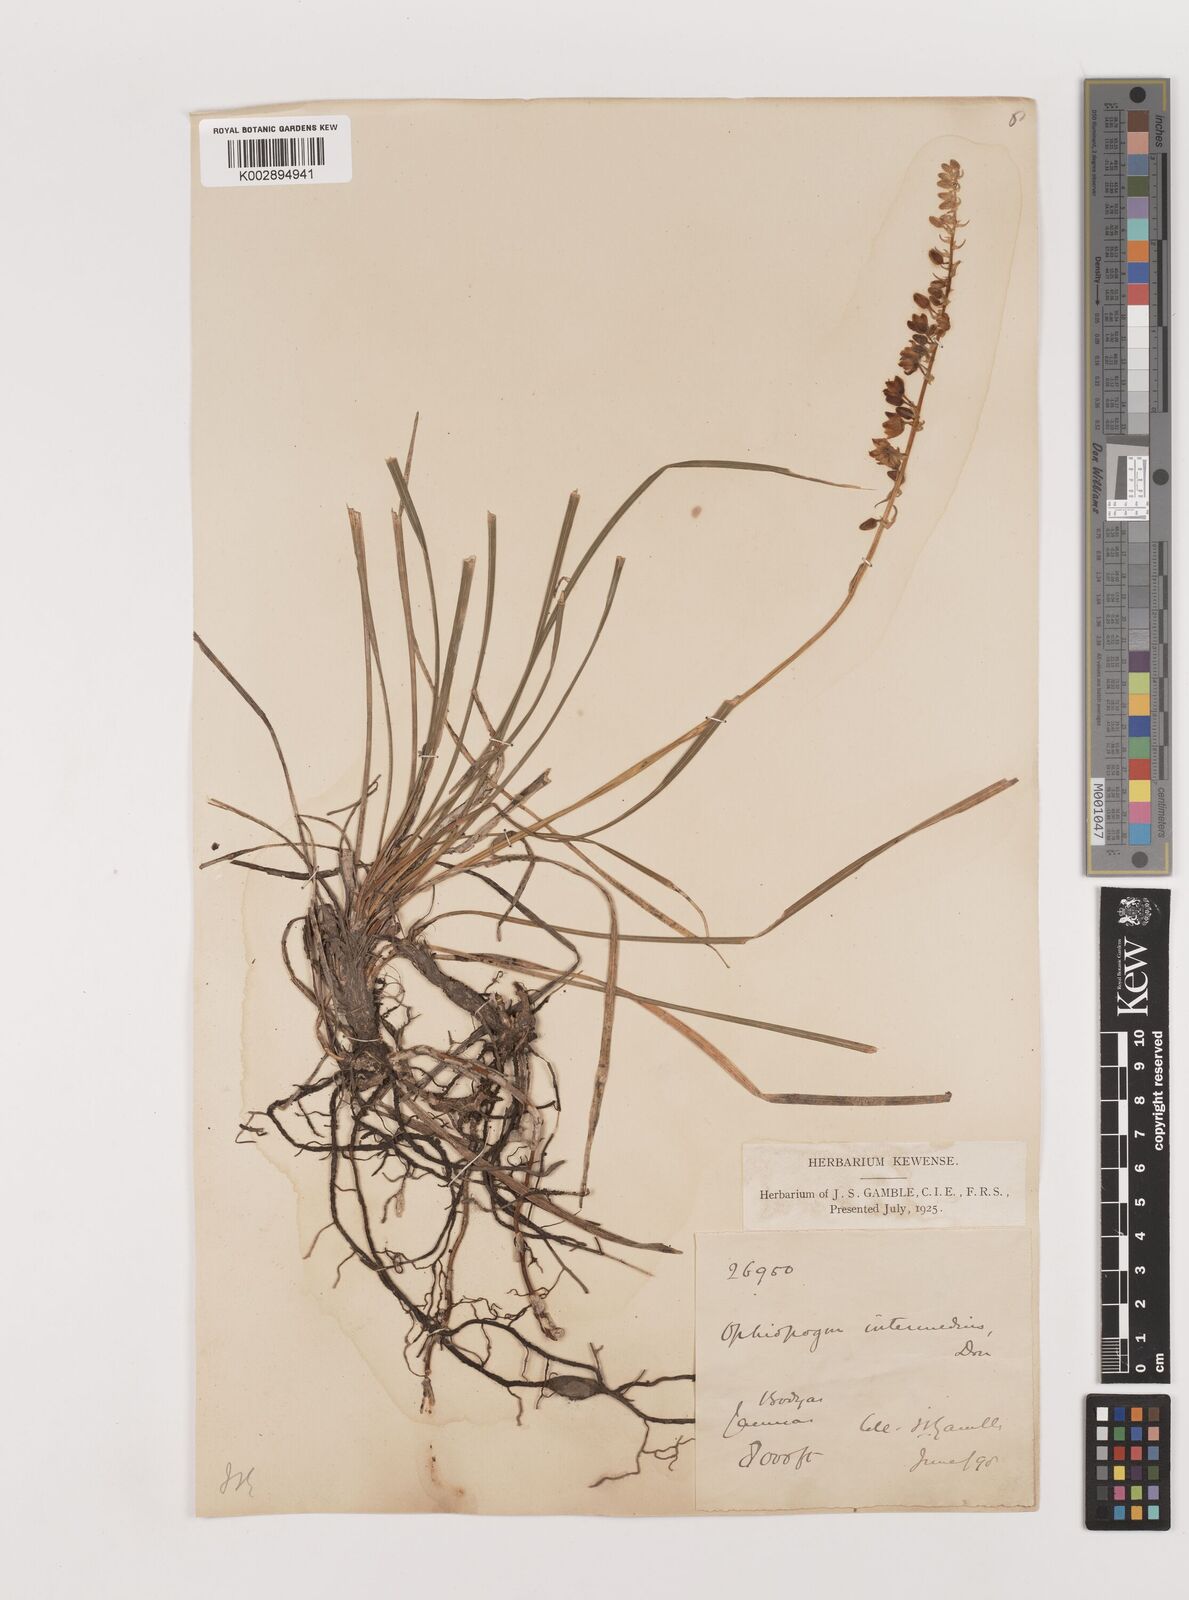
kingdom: Plantae
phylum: Tracheophyta
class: Liliopsida
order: Asparagales
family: Asparagaceae
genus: Ophiopogon
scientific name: Ophiopogon intermedius
